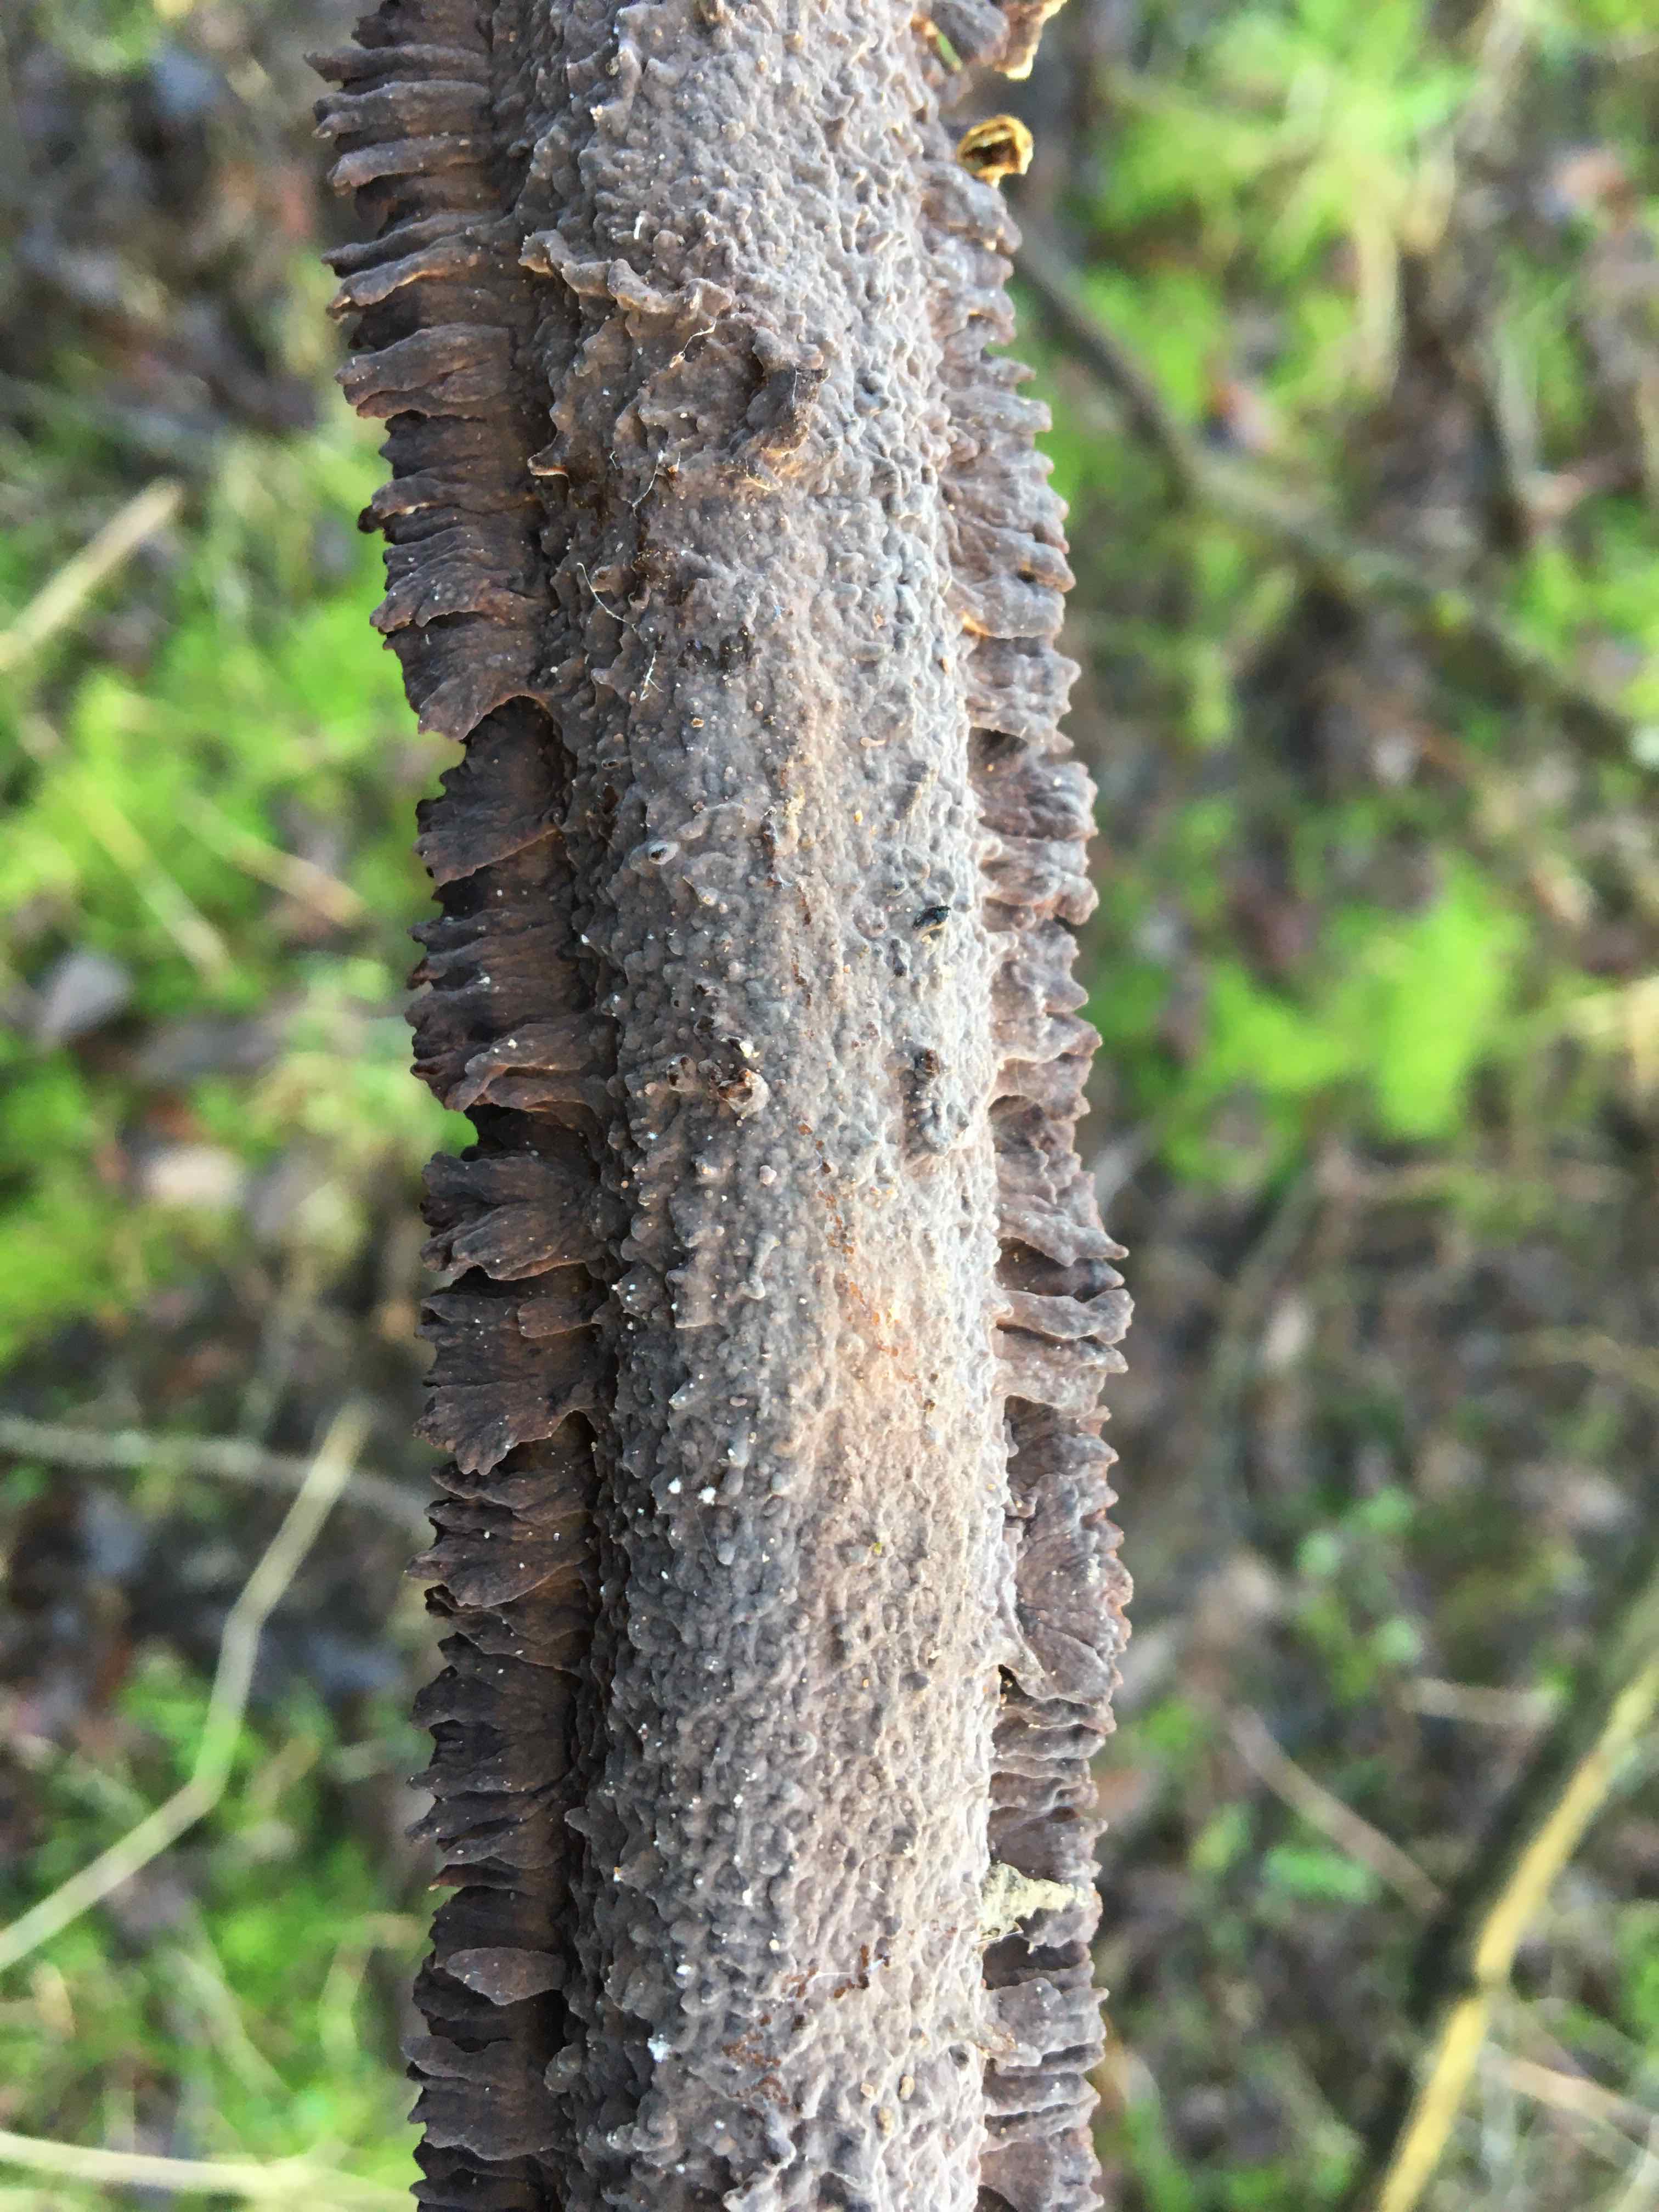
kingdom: Fungi
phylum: Basidiomycota
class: Agaricomycetes
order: Hymenochaetales
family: Hymenochaetaceae
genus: Hydnoporia
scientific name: Hydnoporia tabacina
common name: tobaksbrun ruslædersvamp
